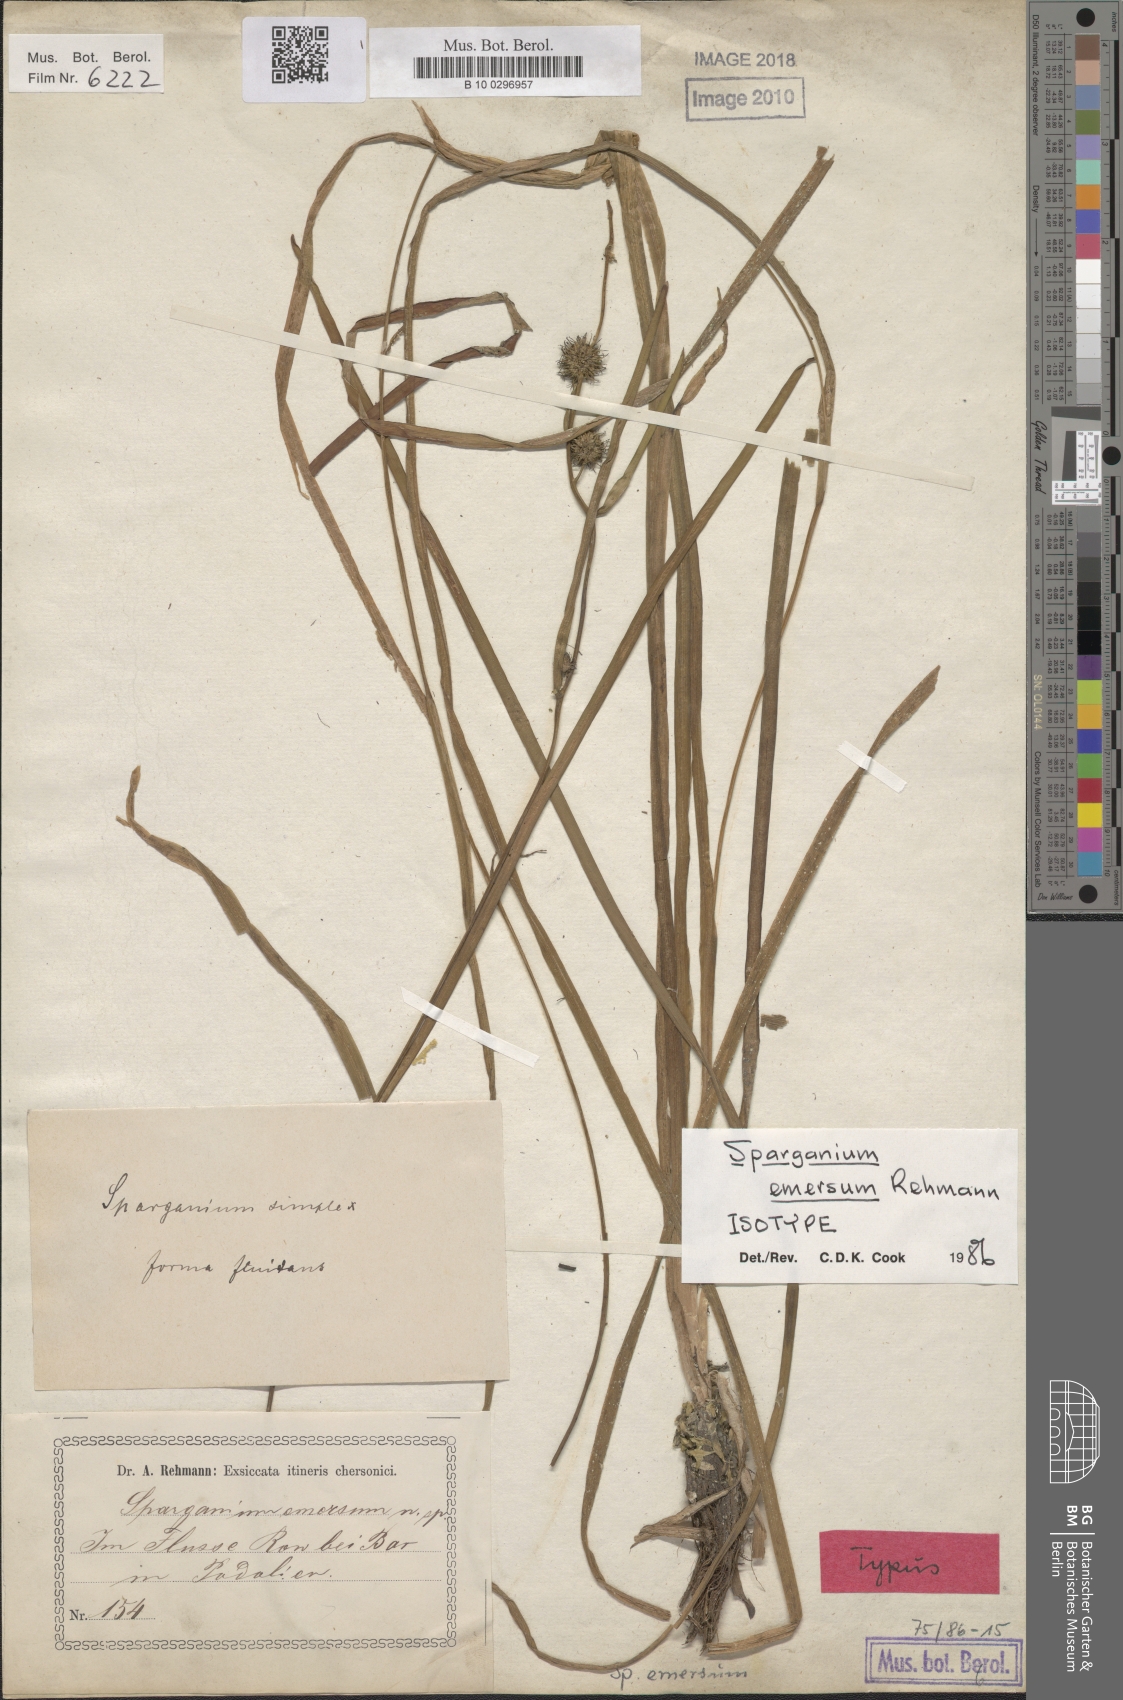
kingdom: Plantae
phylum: Tracheophyta
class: Liliopsida
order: Poales
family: Typhaceae
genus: Sparganium
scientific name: Sparganium emersum
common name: Unbranched bur-reed
